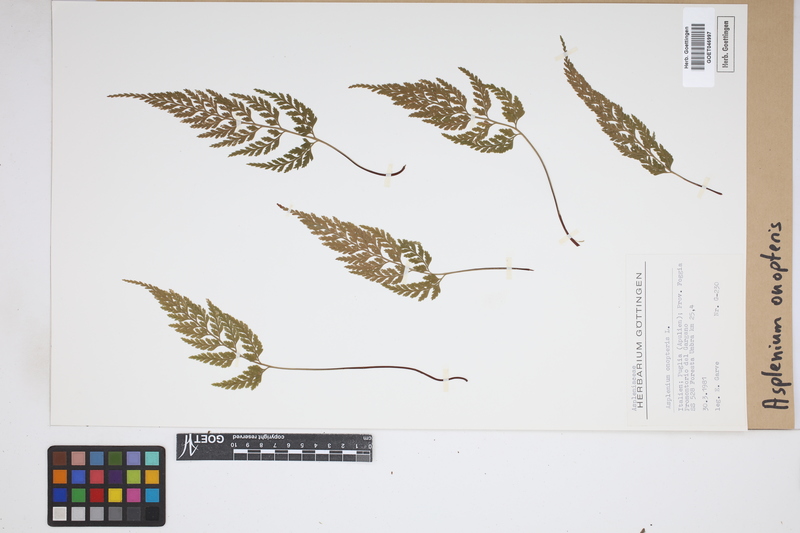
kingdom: Plantae
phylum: Tracheophyta
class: Polypodiopsida
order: Polypodiales
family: Aspleniaceae
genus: Asplenium
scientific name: Asplenium onopteris
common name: Irish spleenwort
